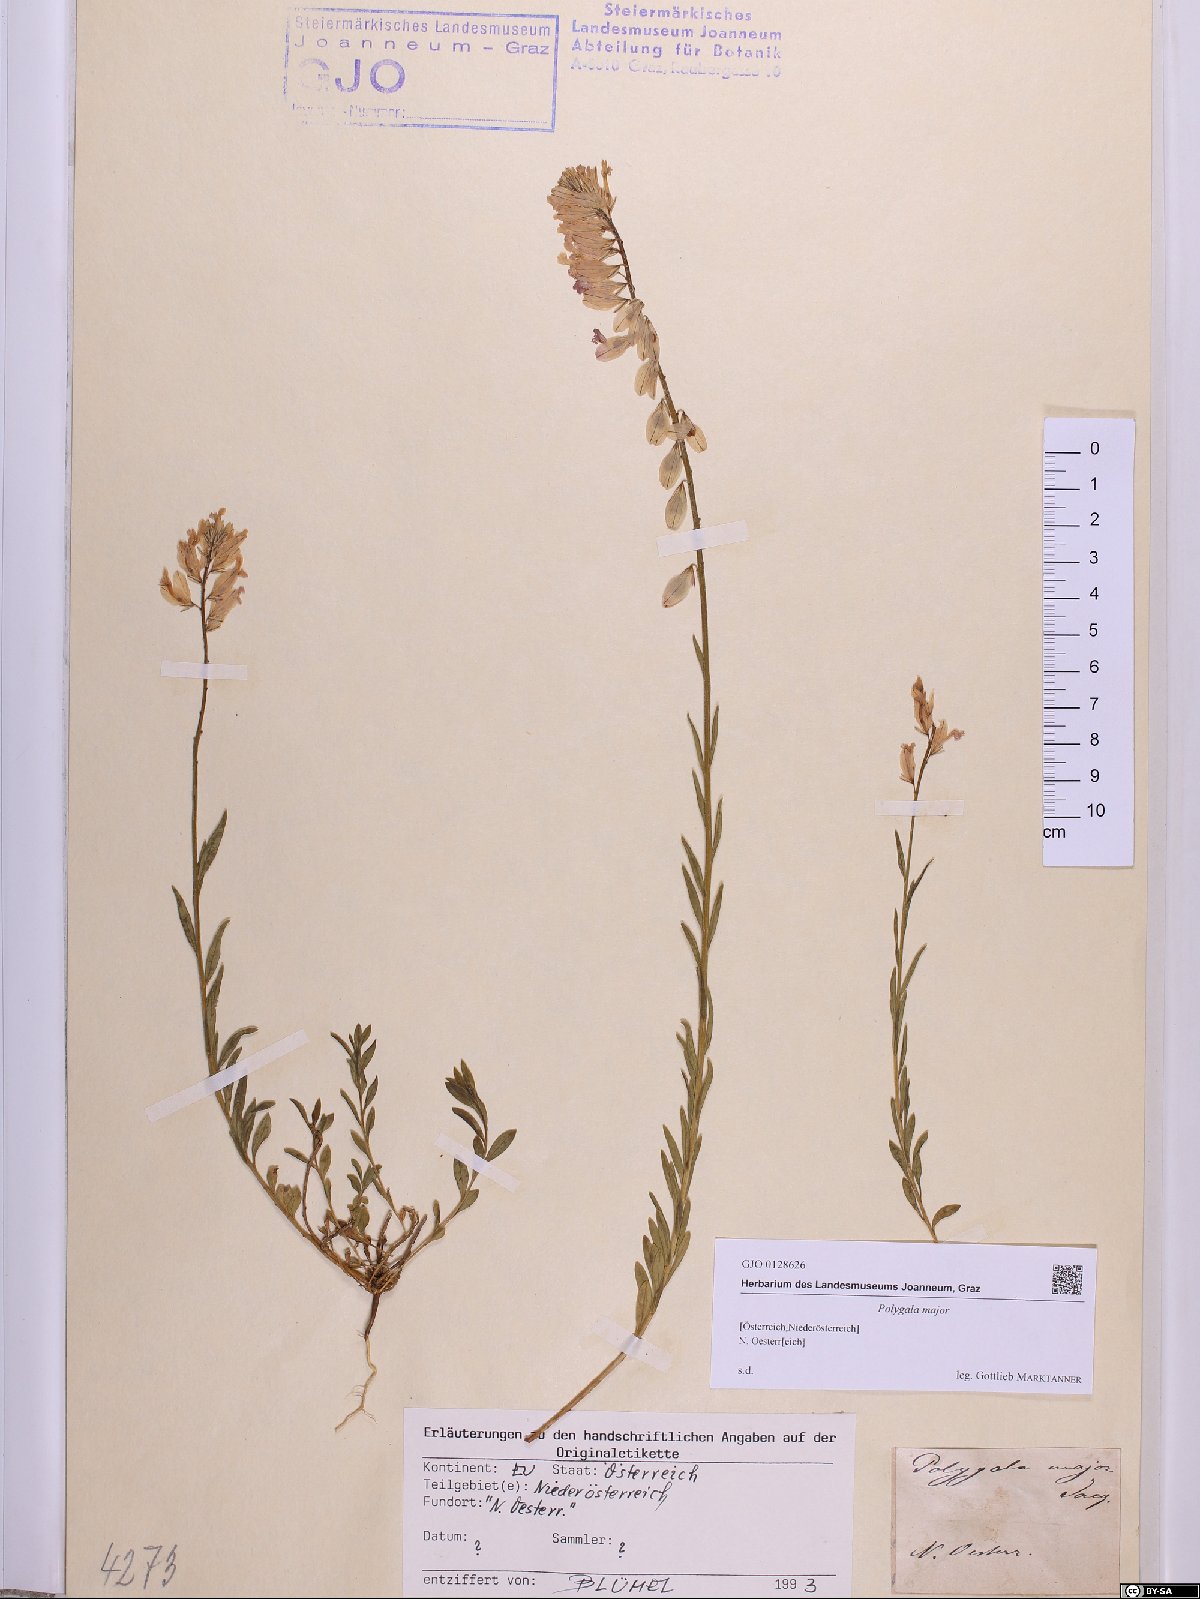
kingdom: Plantae
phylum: Tracheophyta
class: Magnoliopsida
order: Fabales
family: Polygalaceae
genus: Polygala
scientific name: Polygala major
